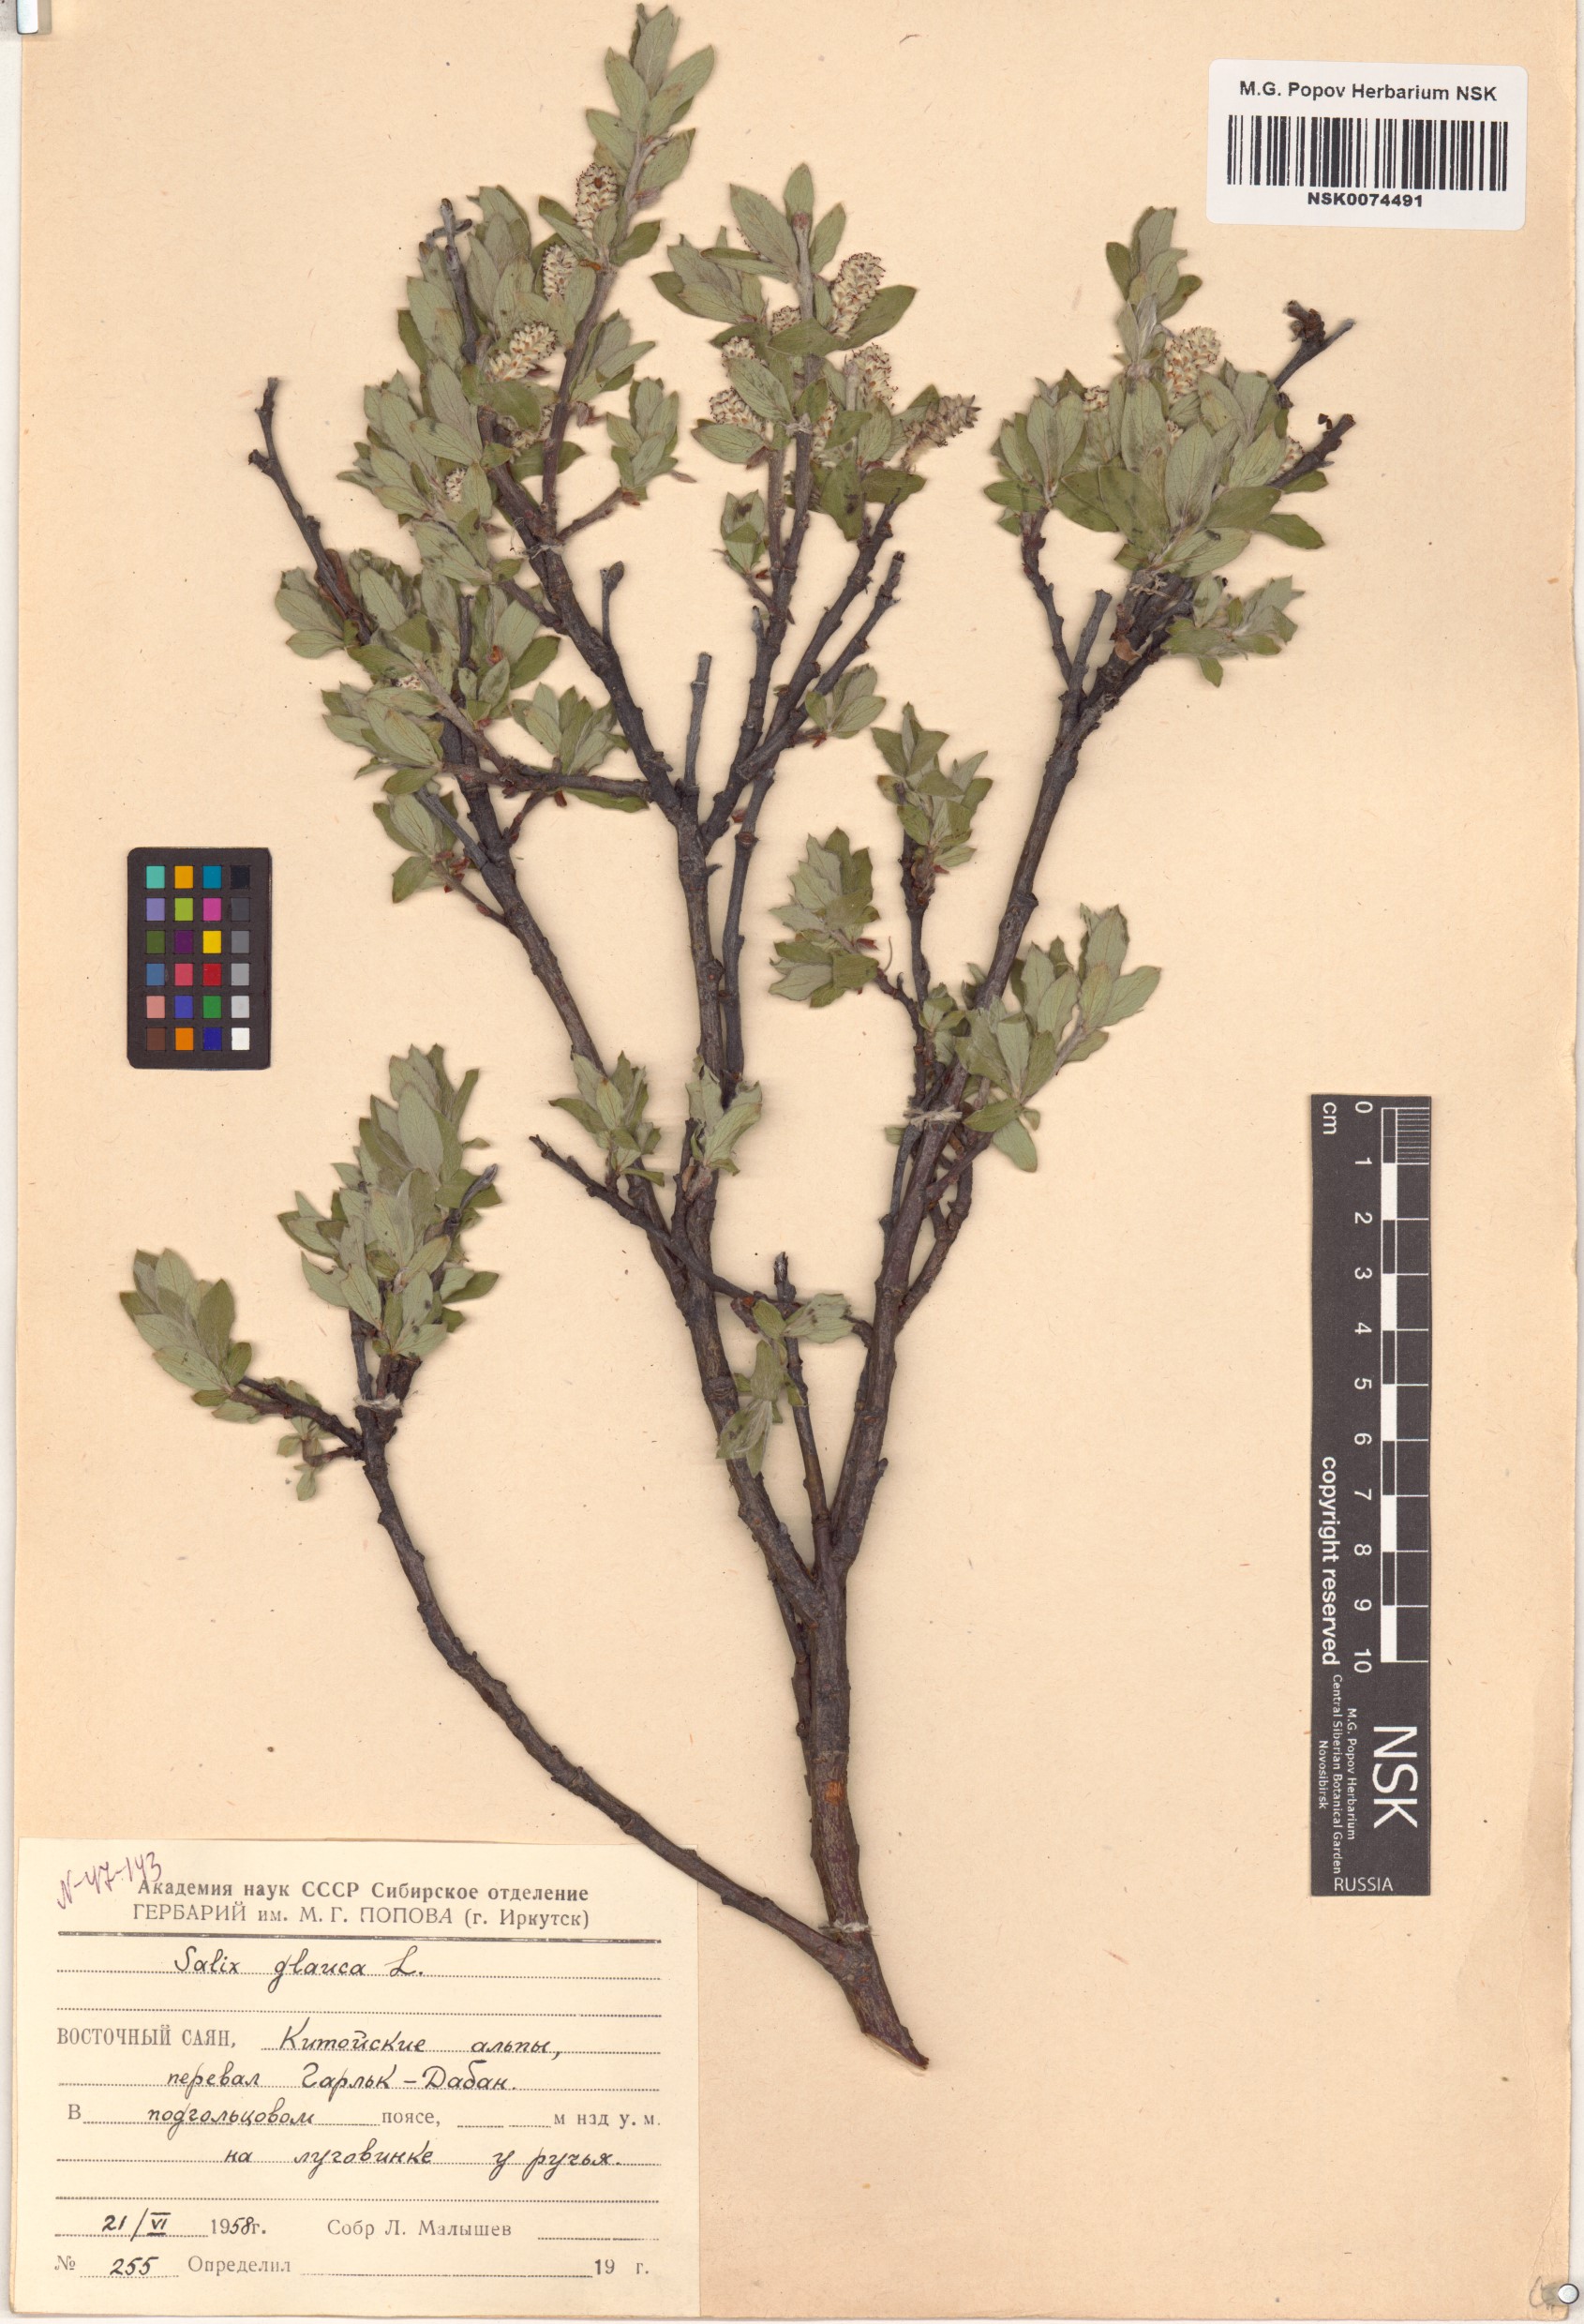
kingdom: Plantae
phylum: Tracheophyta
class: Magnoliopsida
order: Malpighiales
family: Salicaceae
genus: Salix
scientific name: Salix glauca
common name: Glaucous willow
